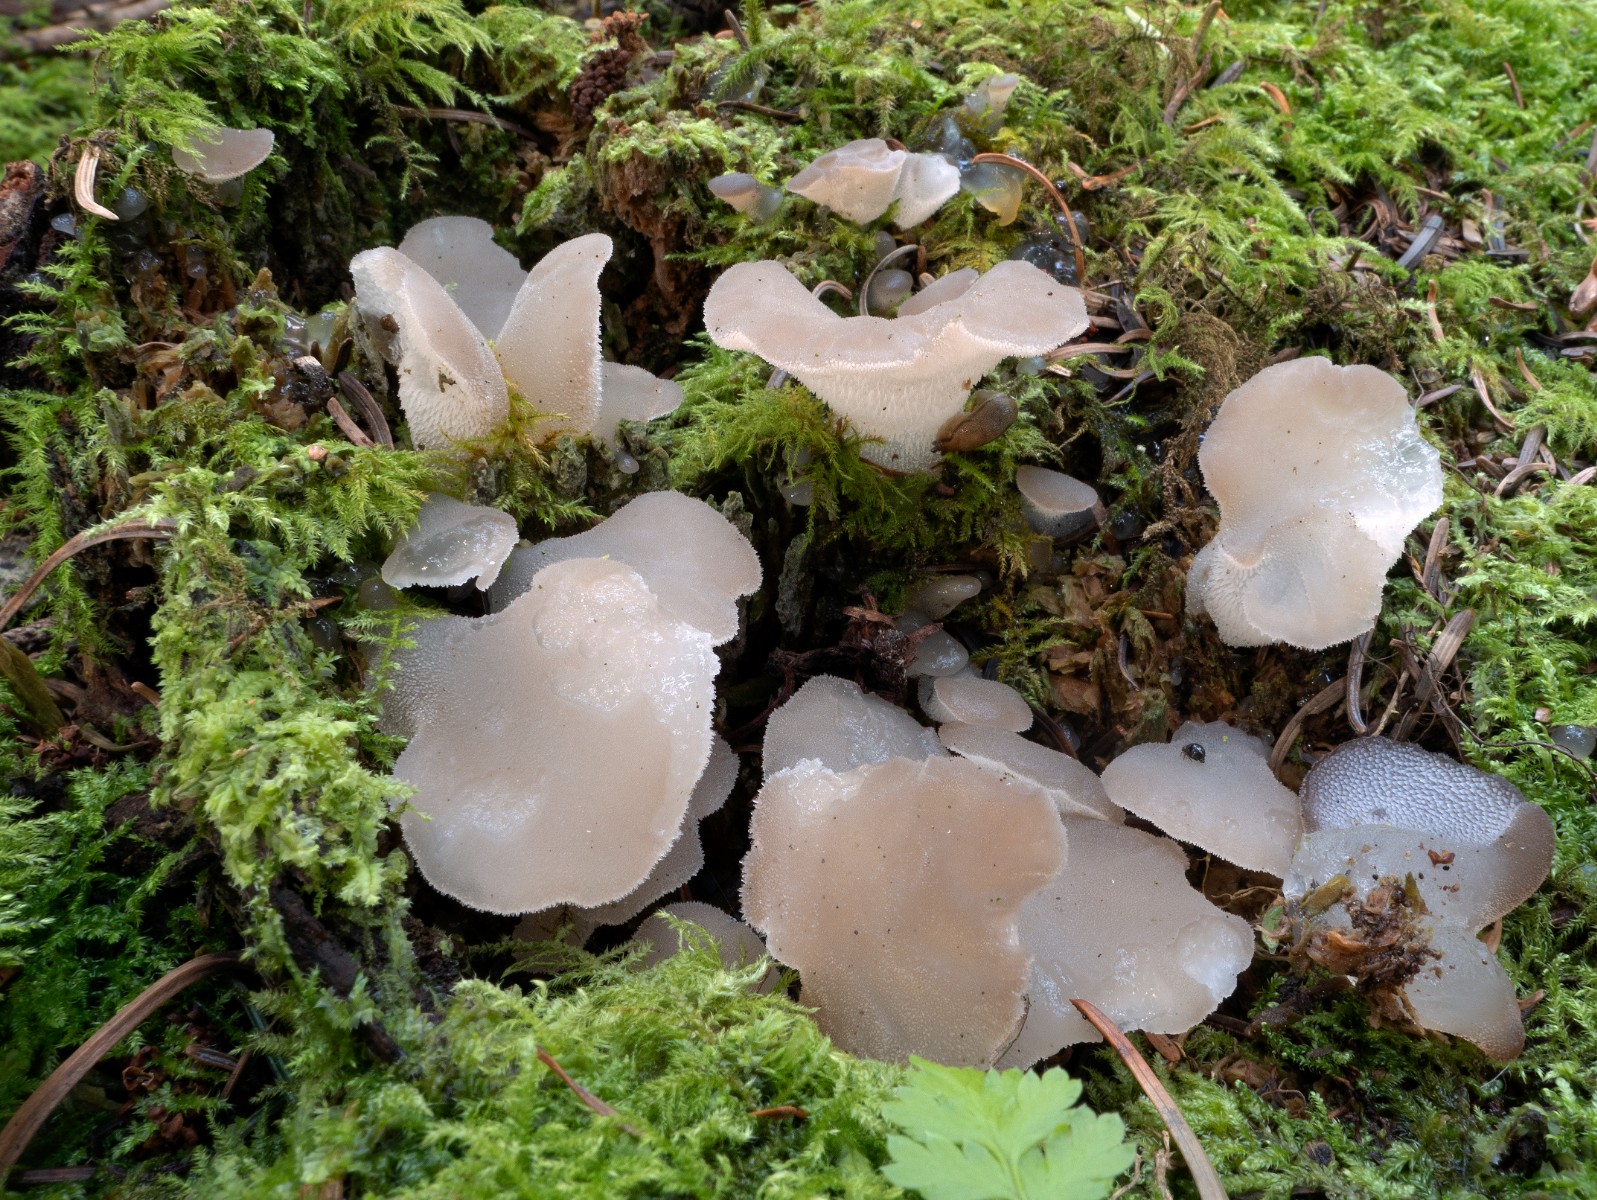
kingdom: Fungi
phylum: Basidiomycota
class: Agaricomycetes
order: Auriculariales
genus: Pseudohydnum
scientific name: Pseudohydnum gelatinosum
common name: bævretand
